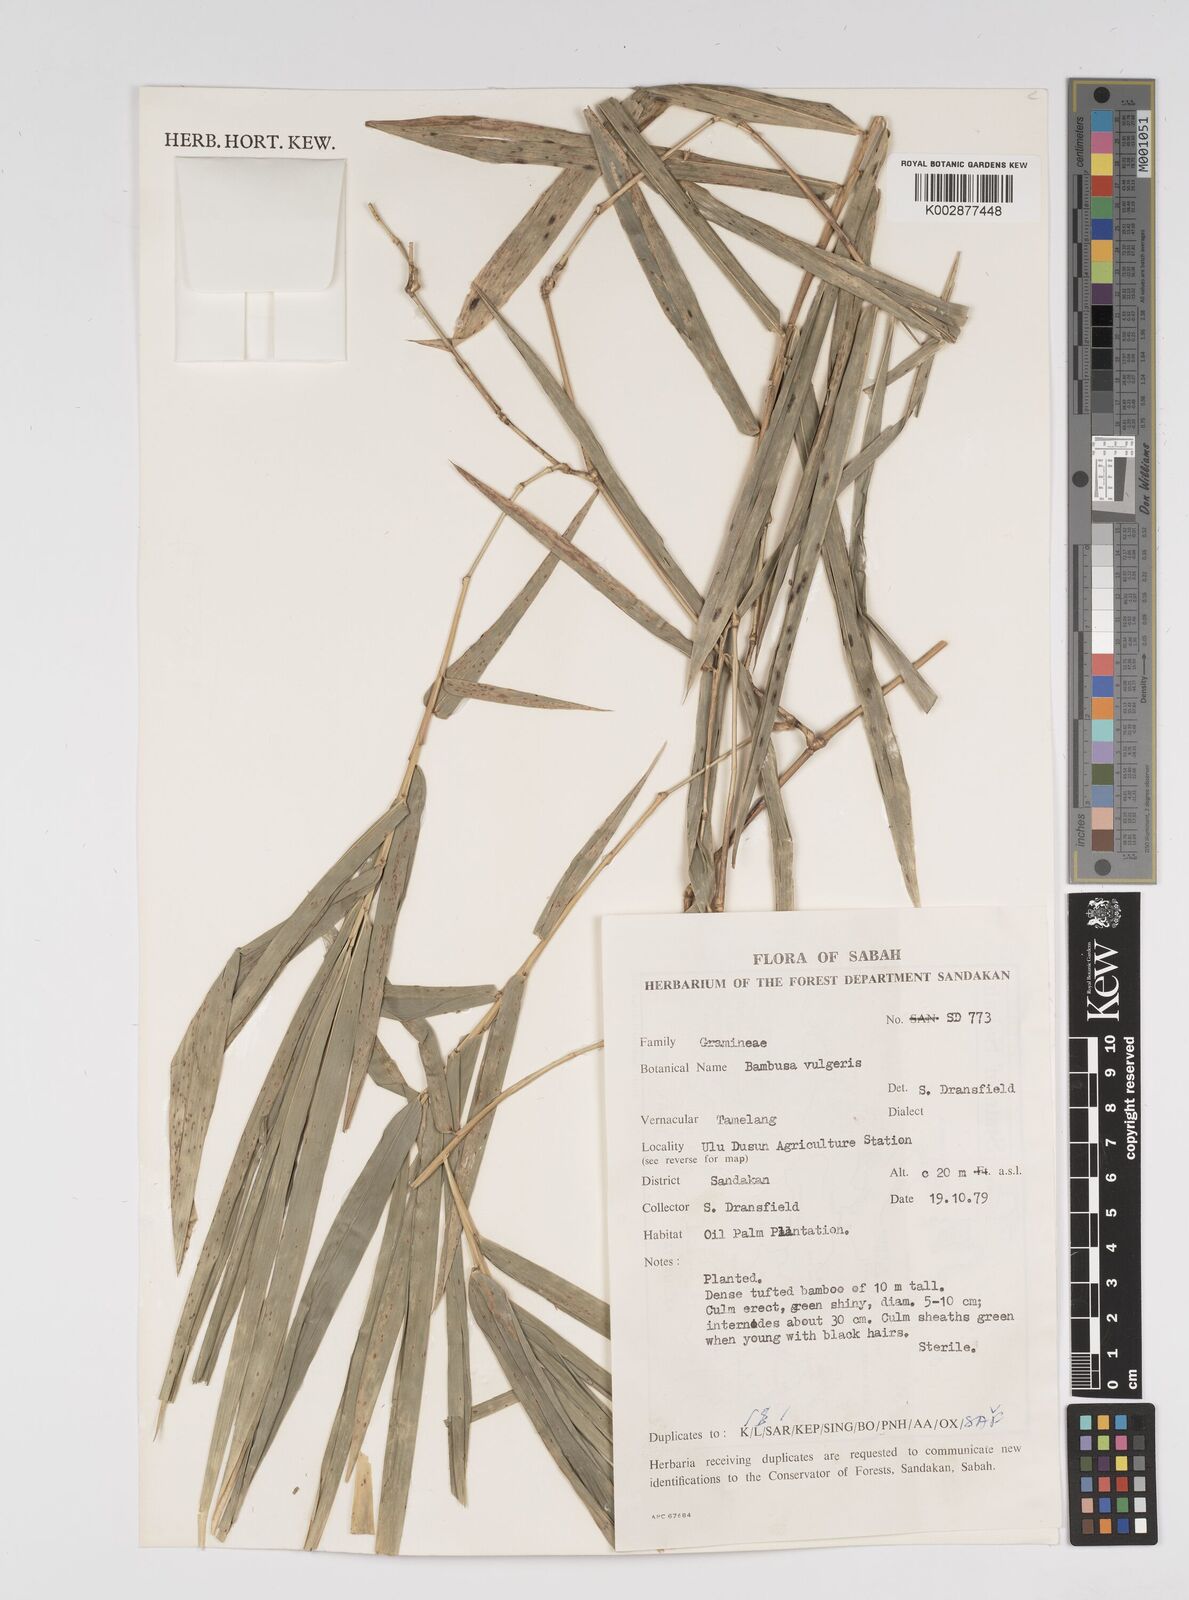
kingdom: Plantae
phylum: Tracheophyta
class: Liliopsida
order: Poales
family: Poaceae
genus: Bambusa
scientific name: Bambusa vulgaris
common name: Common bamboo
